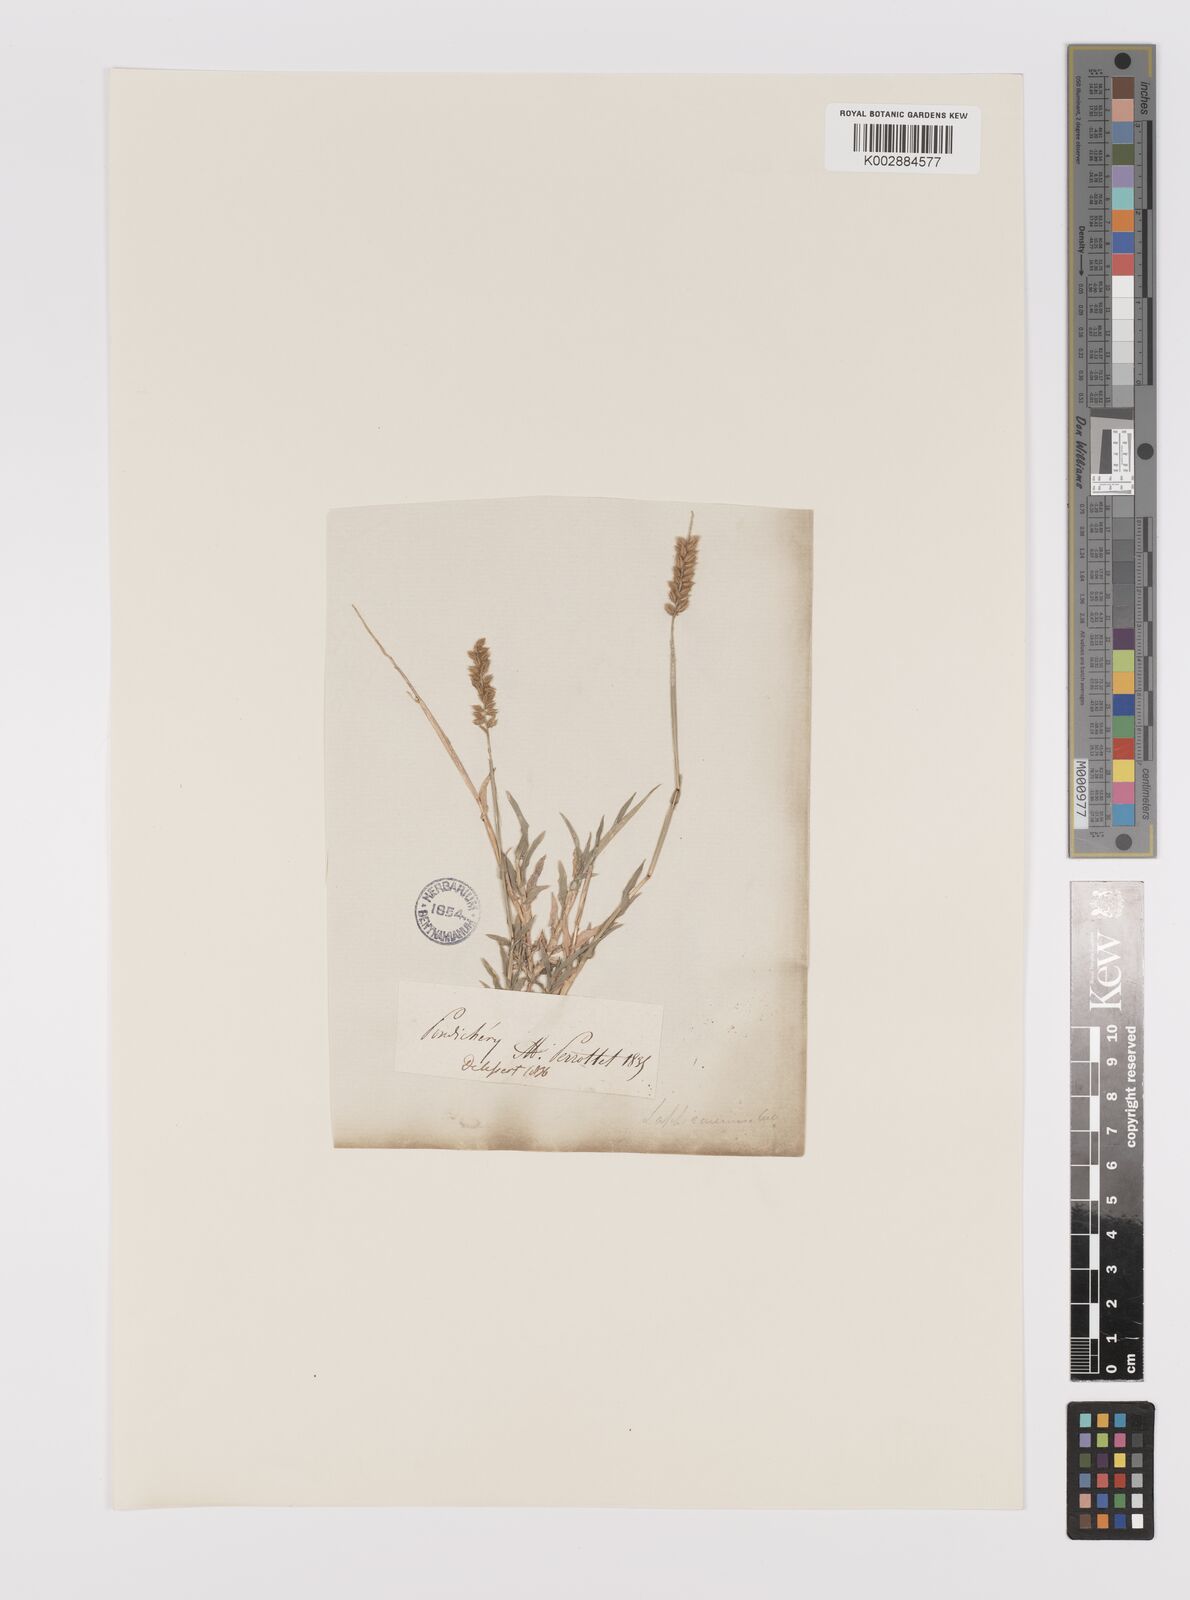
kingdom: Plantae
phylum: Tracheophyta
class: Liliopsida
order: Poales
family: Poaceae
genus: Tragus
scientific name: Tragus mongolorum
